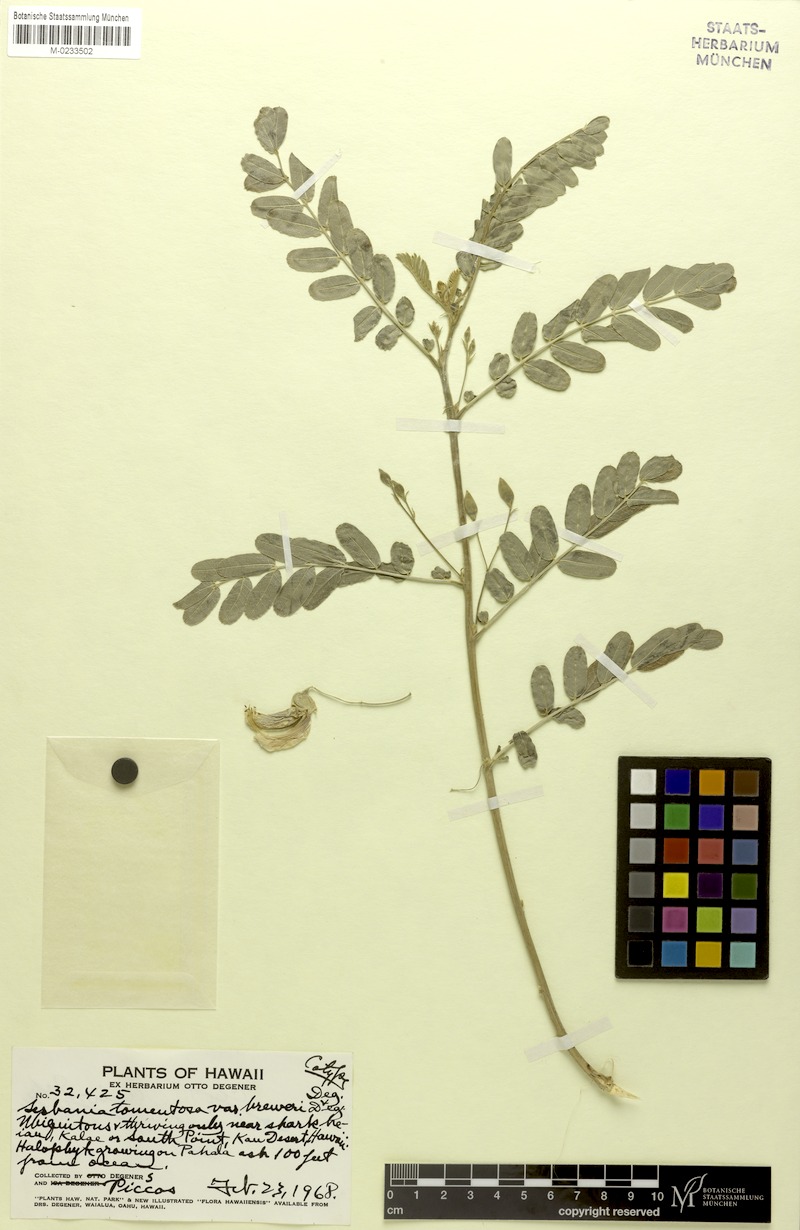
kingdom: Plantae
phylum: Tracheophyta
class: Magnoliopsida
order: Fabales
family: Fabaceae
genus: Sesbania
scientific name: Sesbania tomentosa
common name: `ohai
